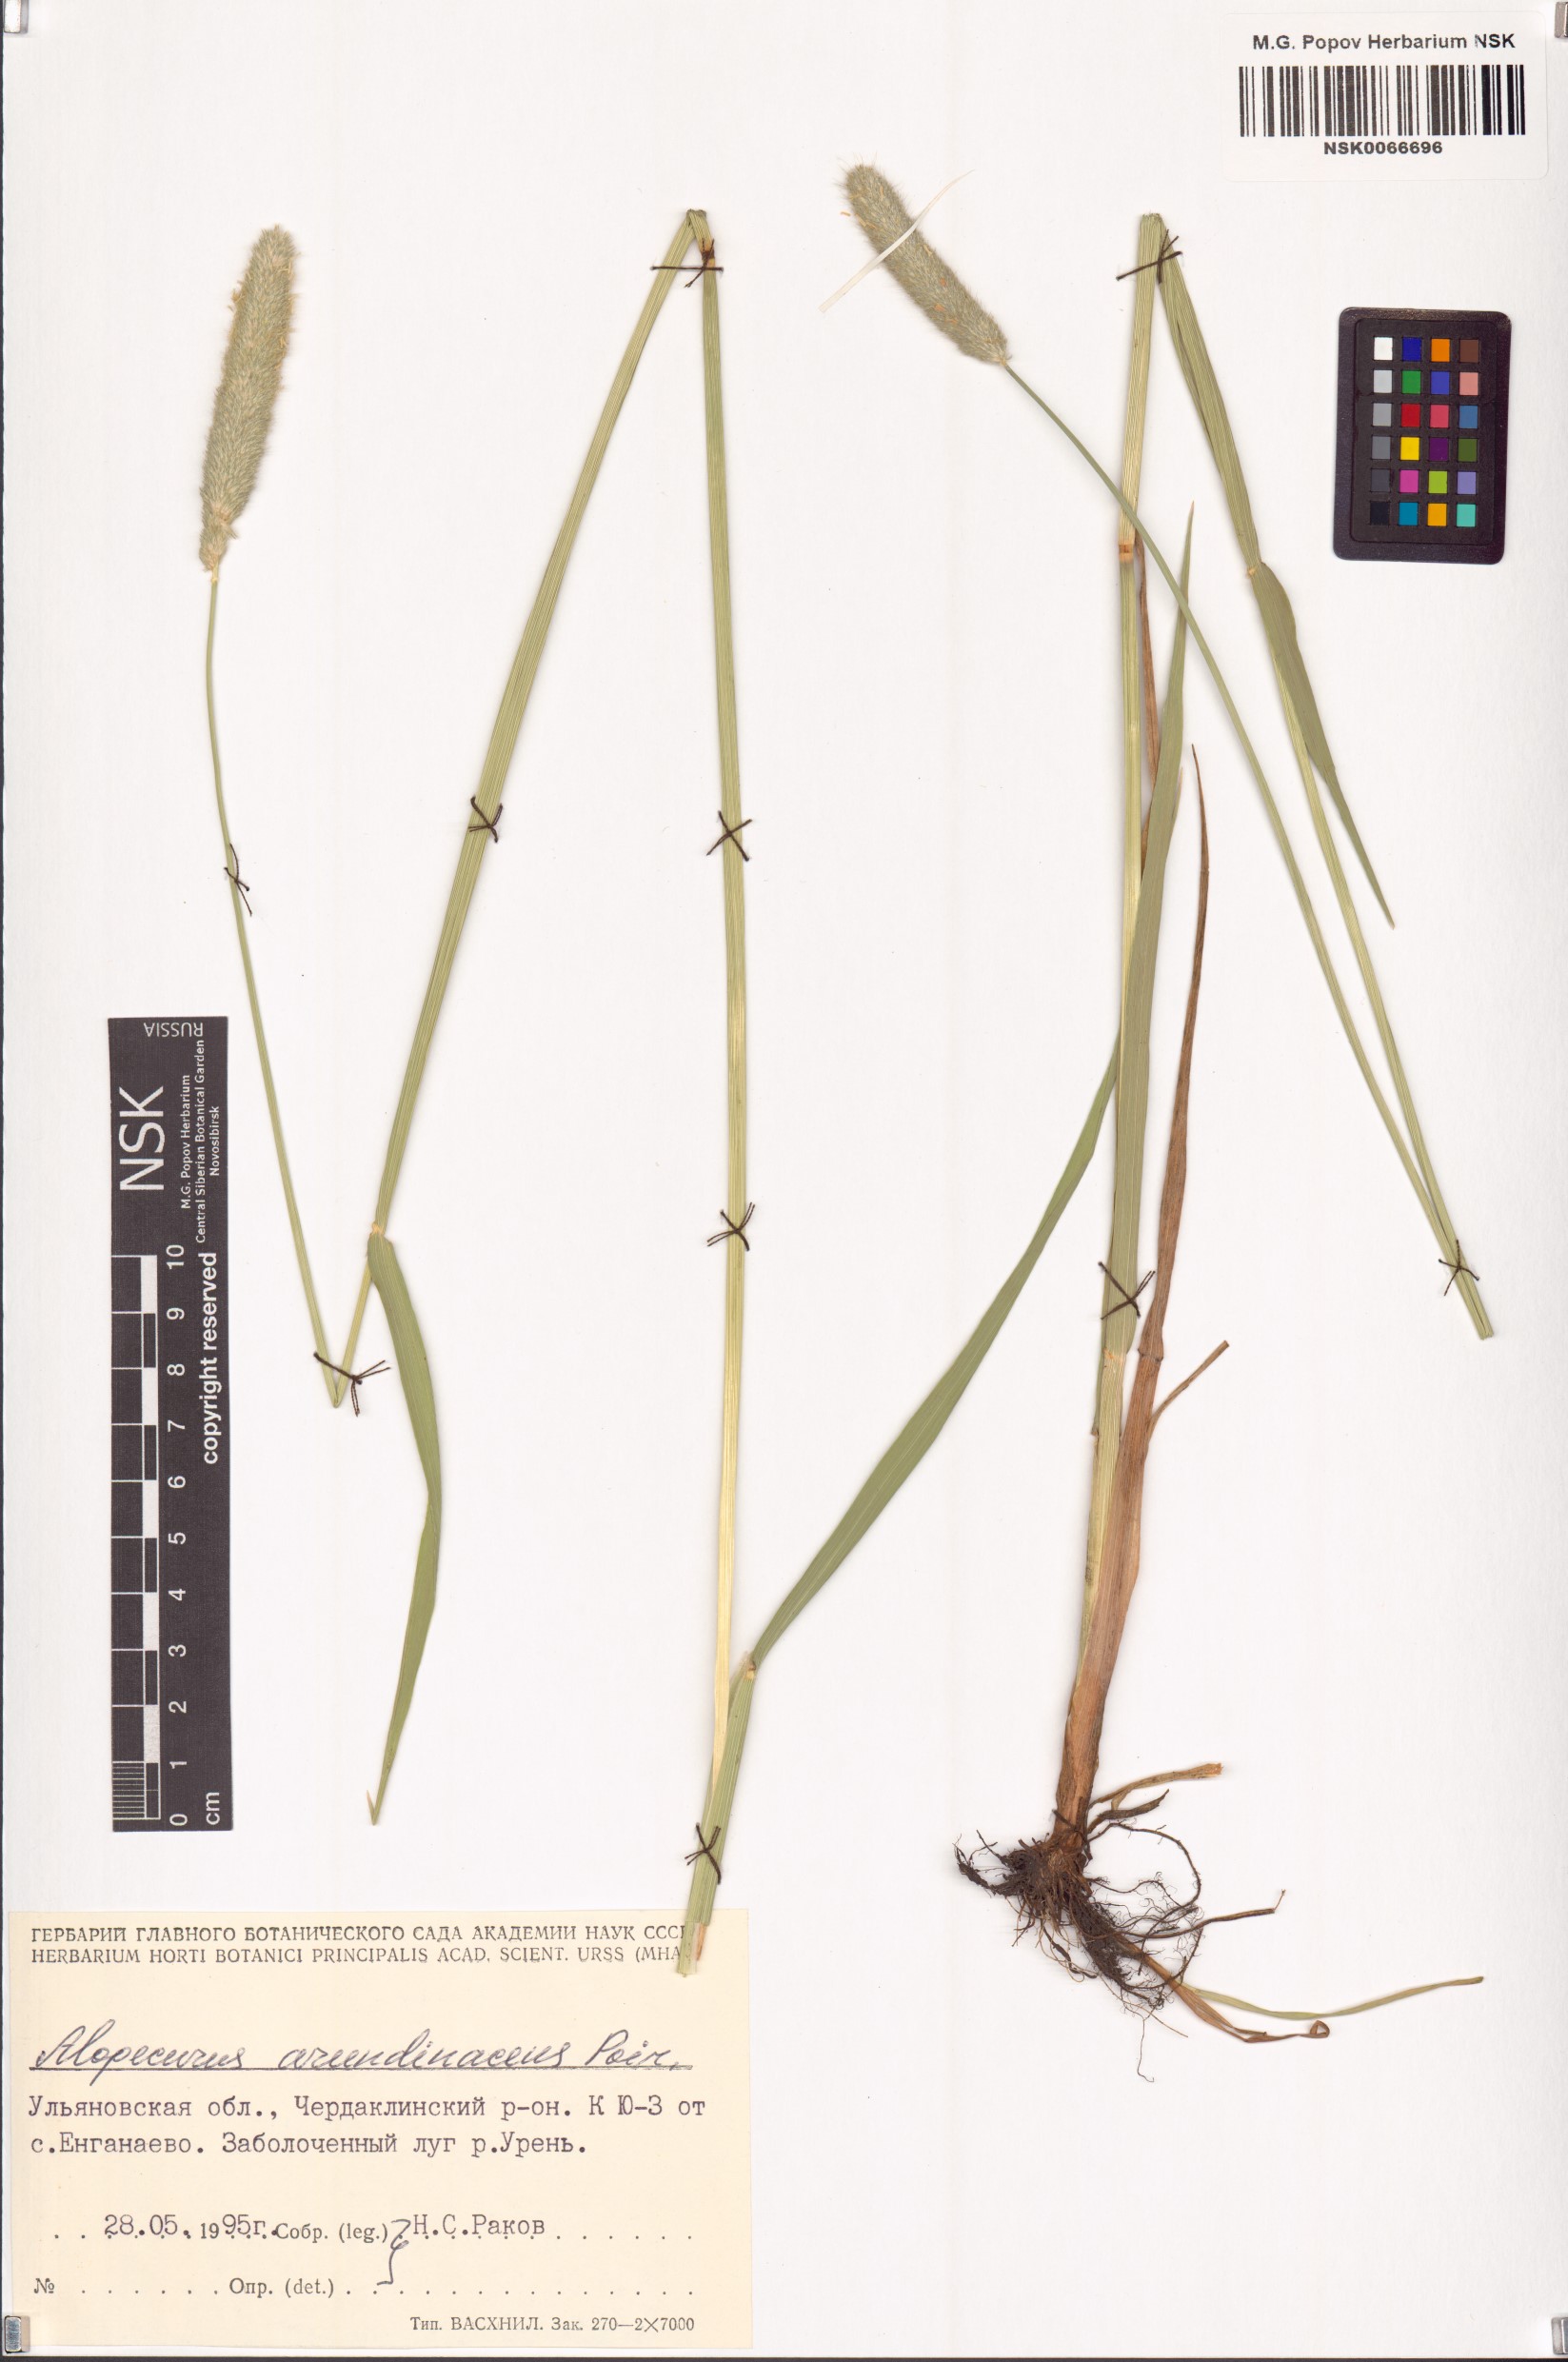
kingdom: Plantae
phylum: Tracheophyta
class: Liliopsida
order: Poales
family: Poaceae
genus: Alopecurus
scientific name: Alopecurus arundinaceus
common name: Creeping meadow foxtail
